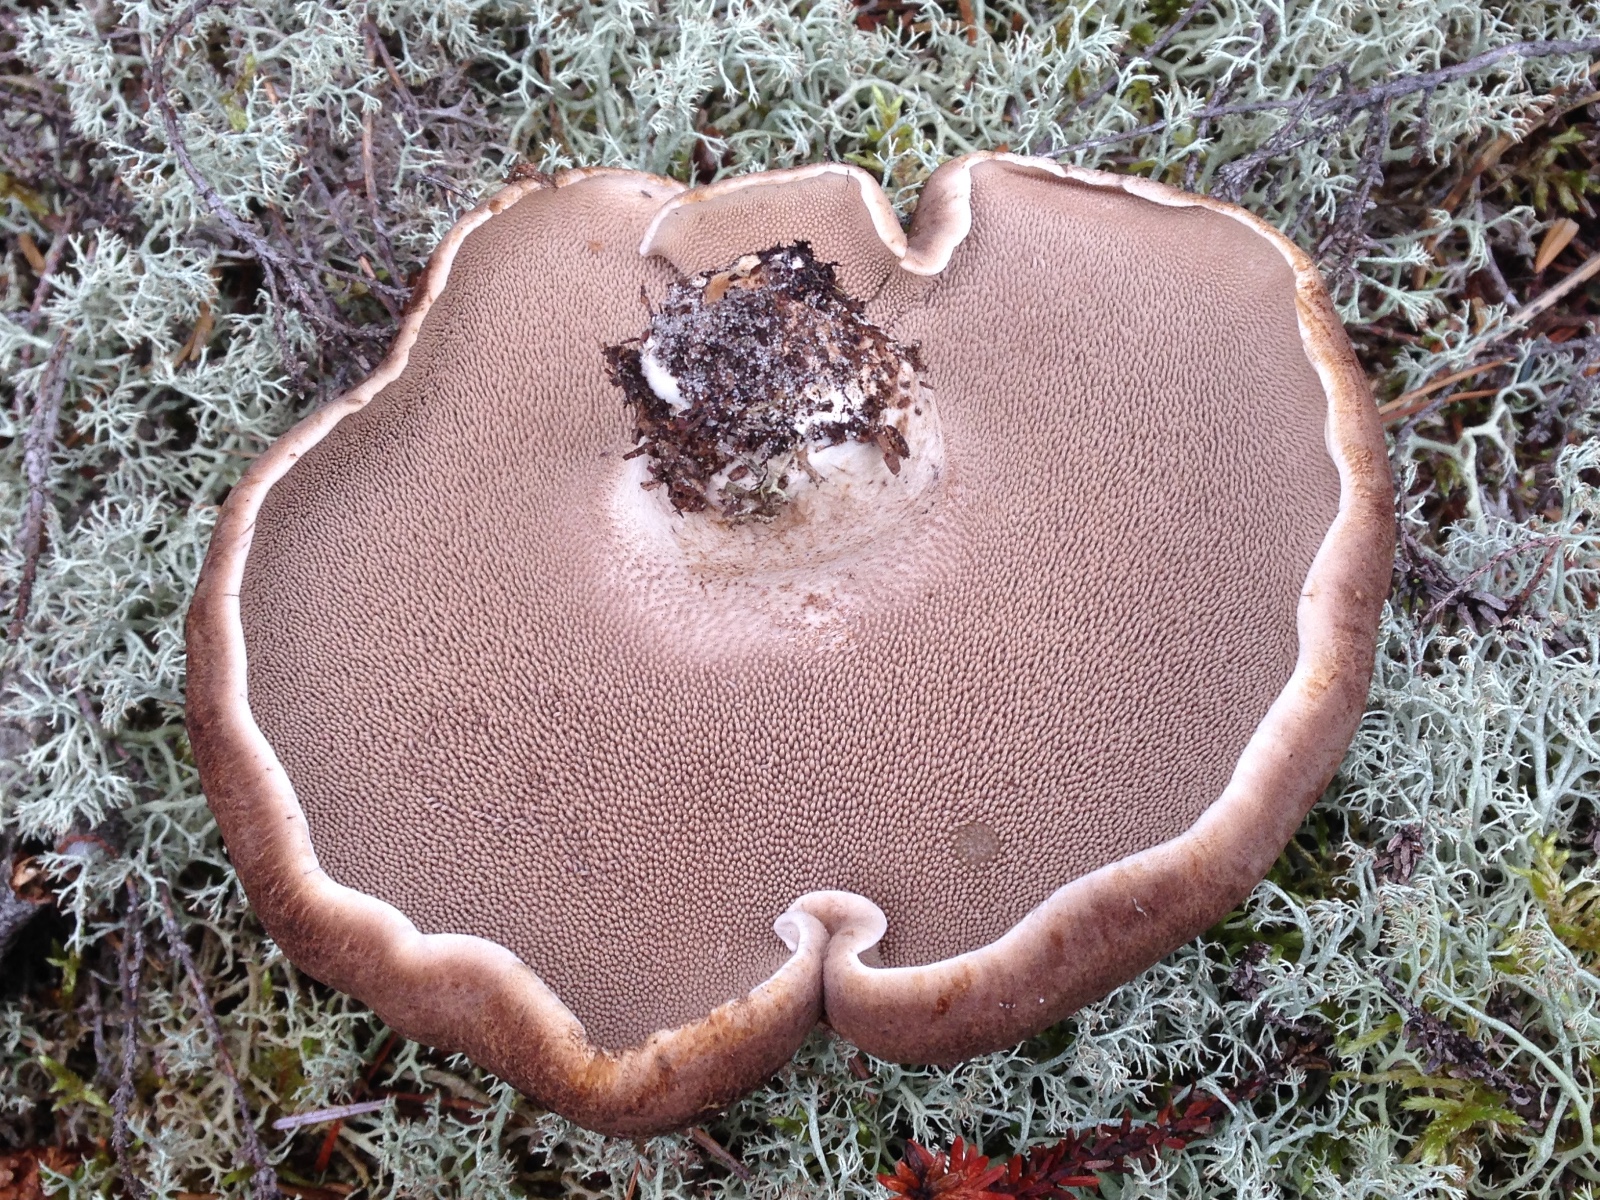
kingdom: Fungi
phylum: Basidiomycota
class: Agaricomycetes
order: Thelephorales
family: Bankeraceae
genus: Sarcodon
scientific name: Sarcodon squamosus
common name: småskællet kødpigsvamp
